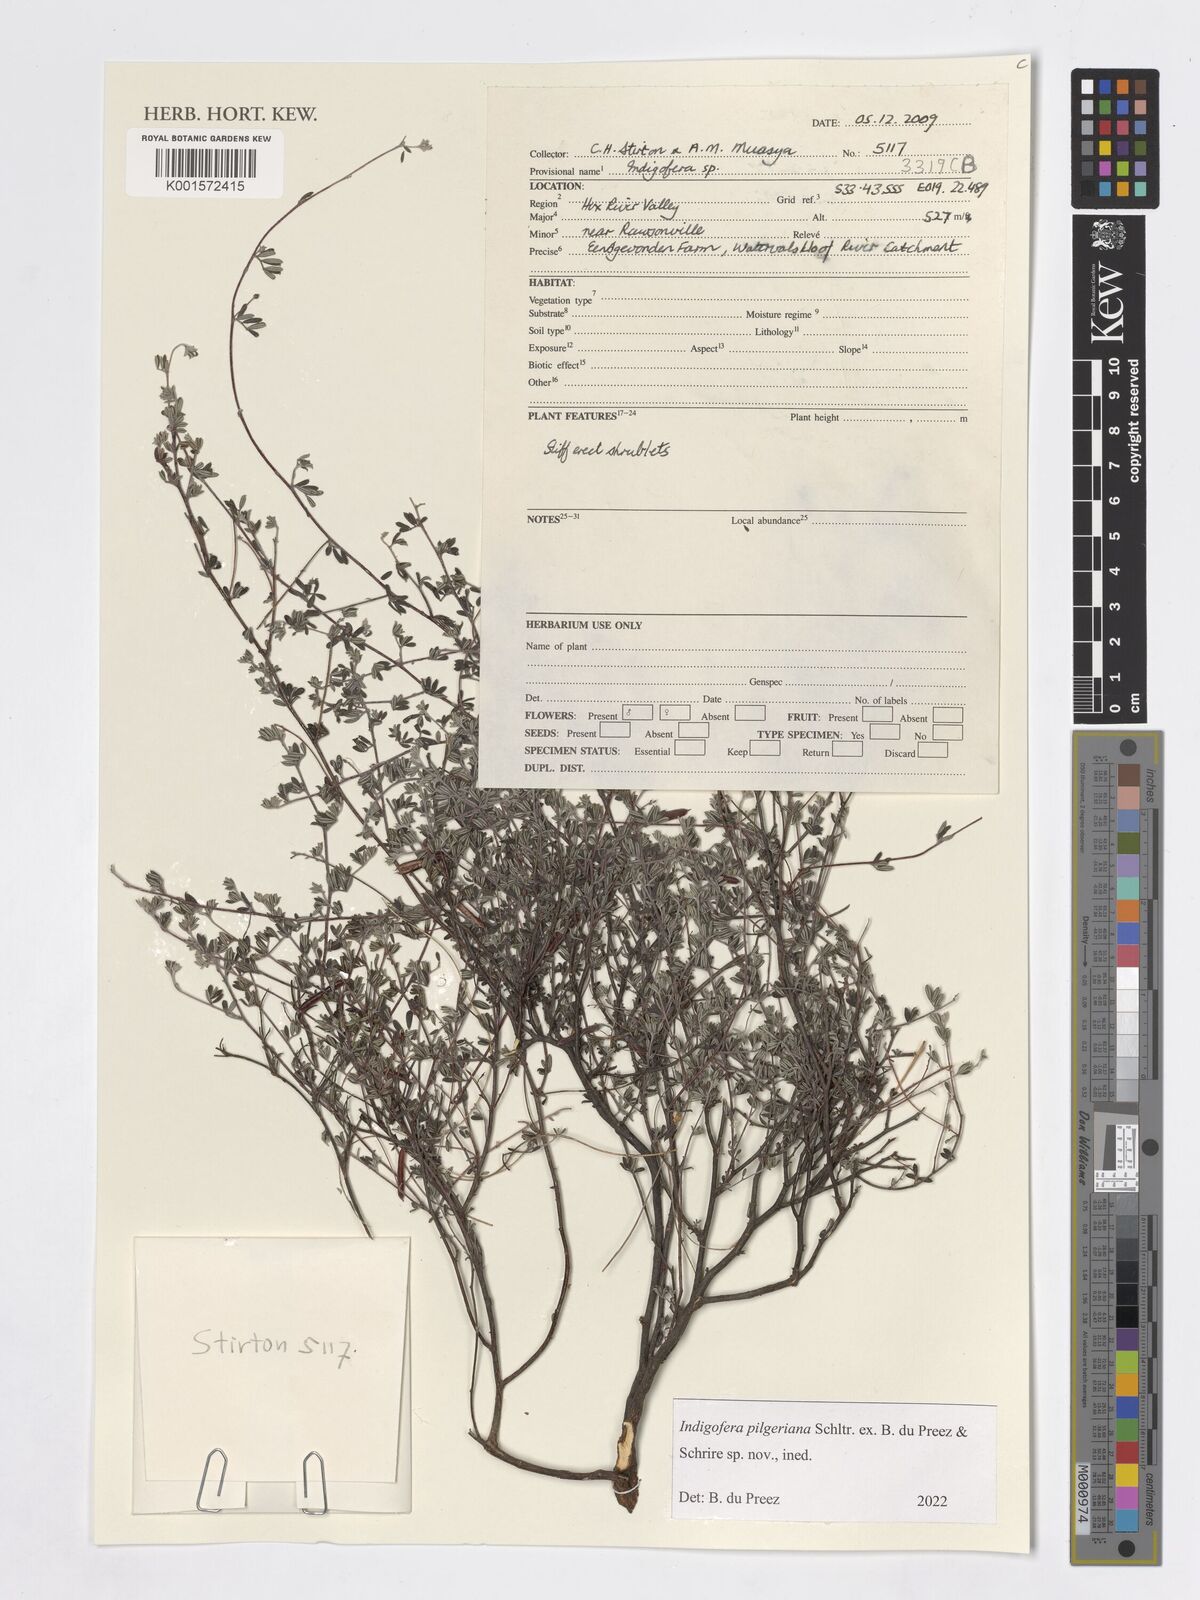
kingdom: Plantae
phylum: Tracheophyta
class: Magnoliopsida
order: Fabales
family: Fabaceae
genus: Indigofera
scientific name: Indigofera
